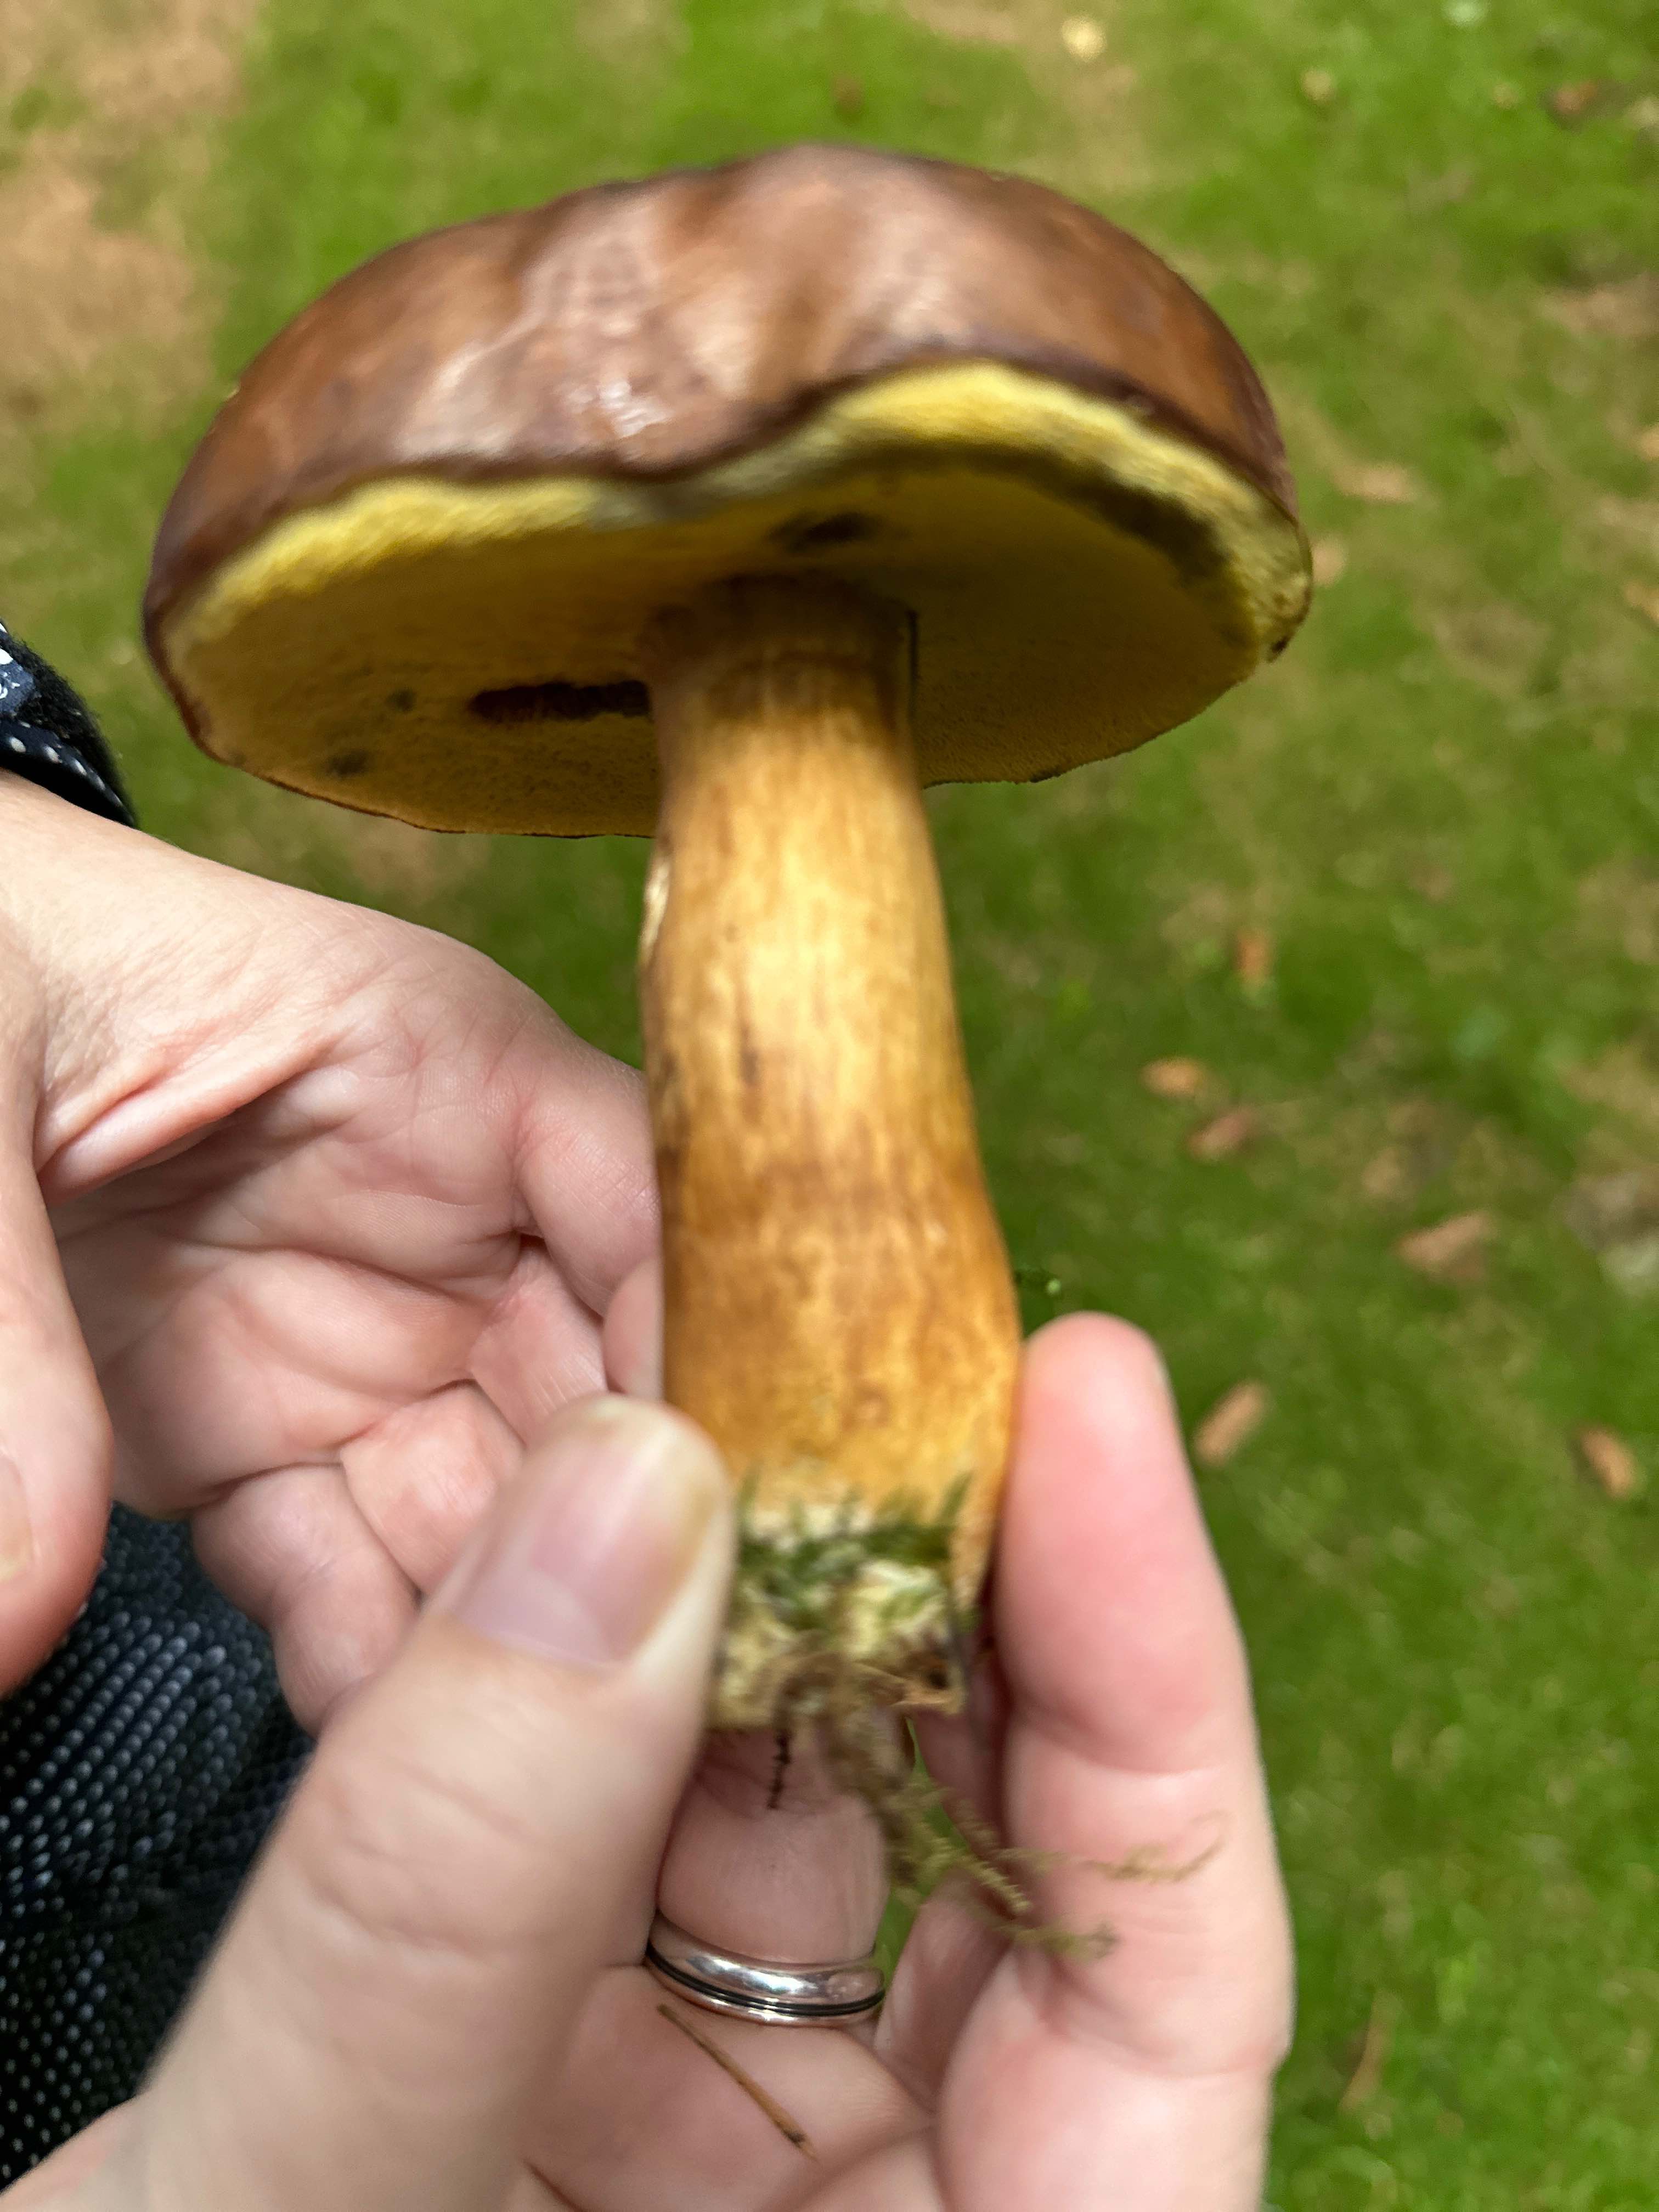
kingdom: Fungi
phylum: Basidiomycota
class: Agaricomycetes
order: Boletales
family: Boletaceae
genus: Imleria
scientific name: Imleria badia
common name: brunstokket rørhat
